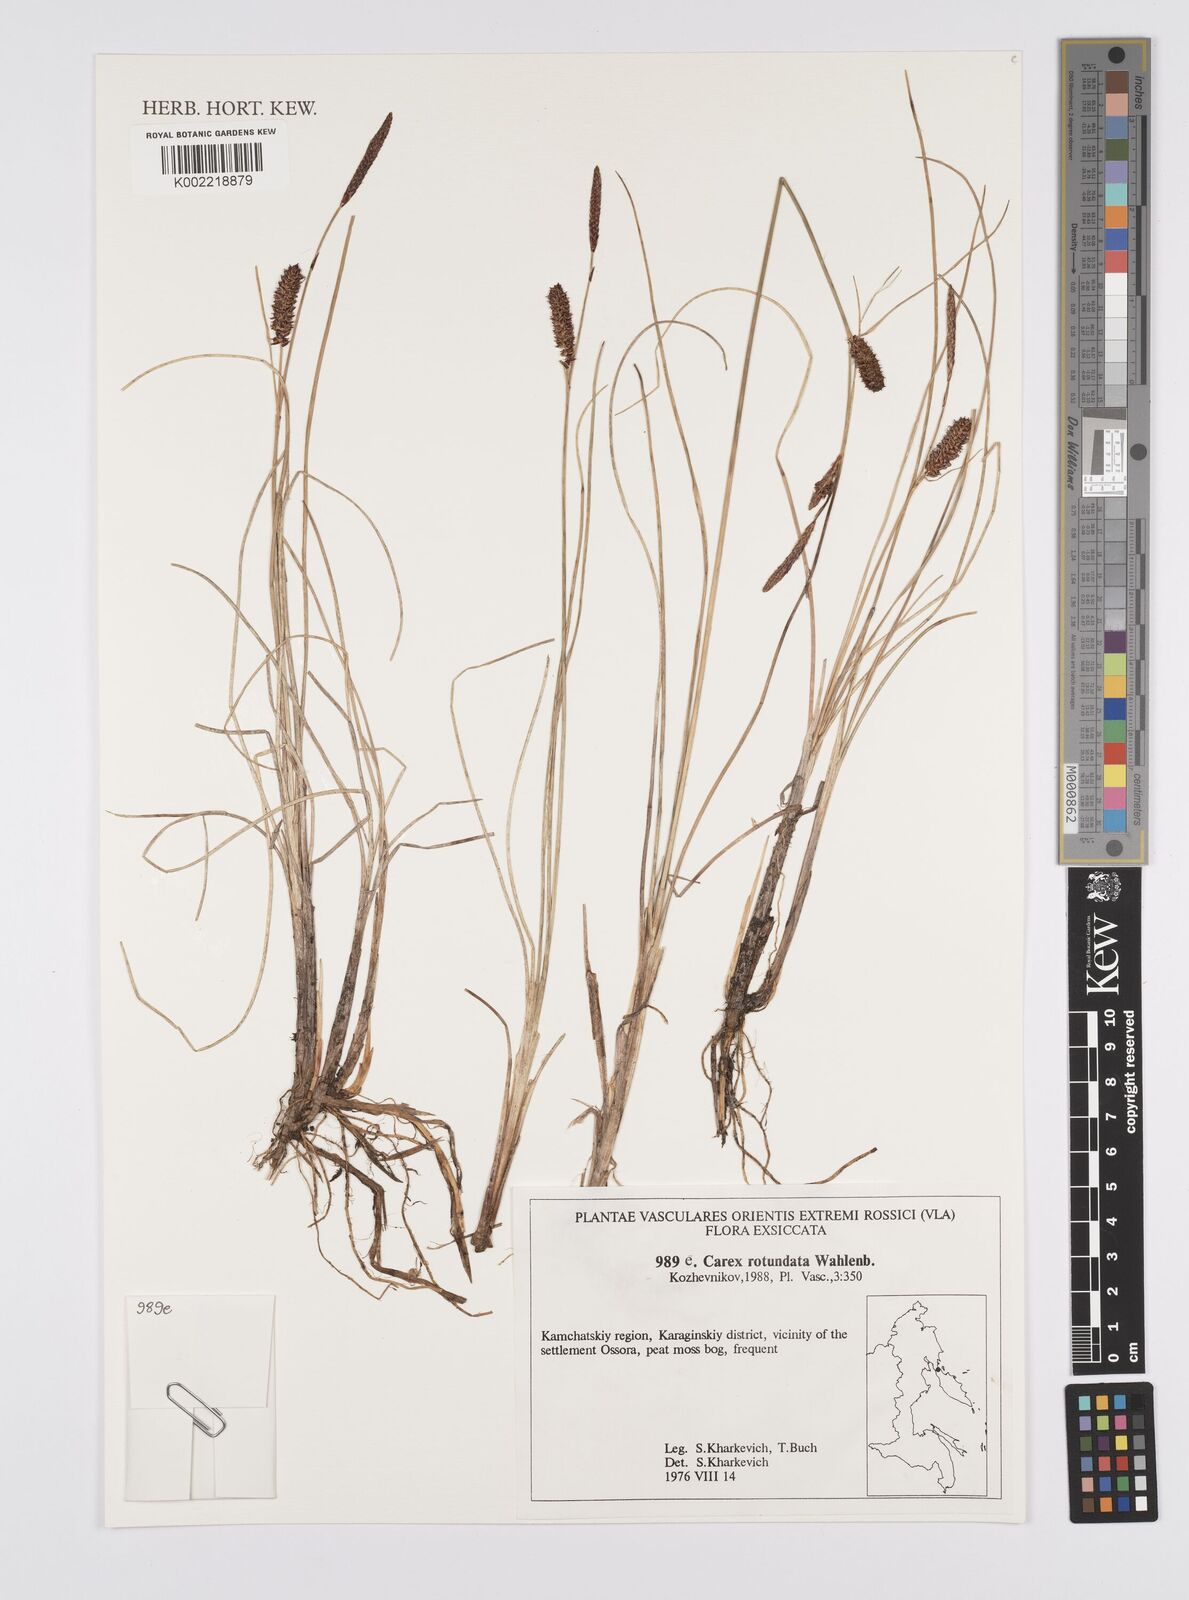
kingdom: Plantae
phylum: Tracheophyta
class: Liliopsida
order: Poales
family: Cyperaceae
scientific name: Cyperaceae
